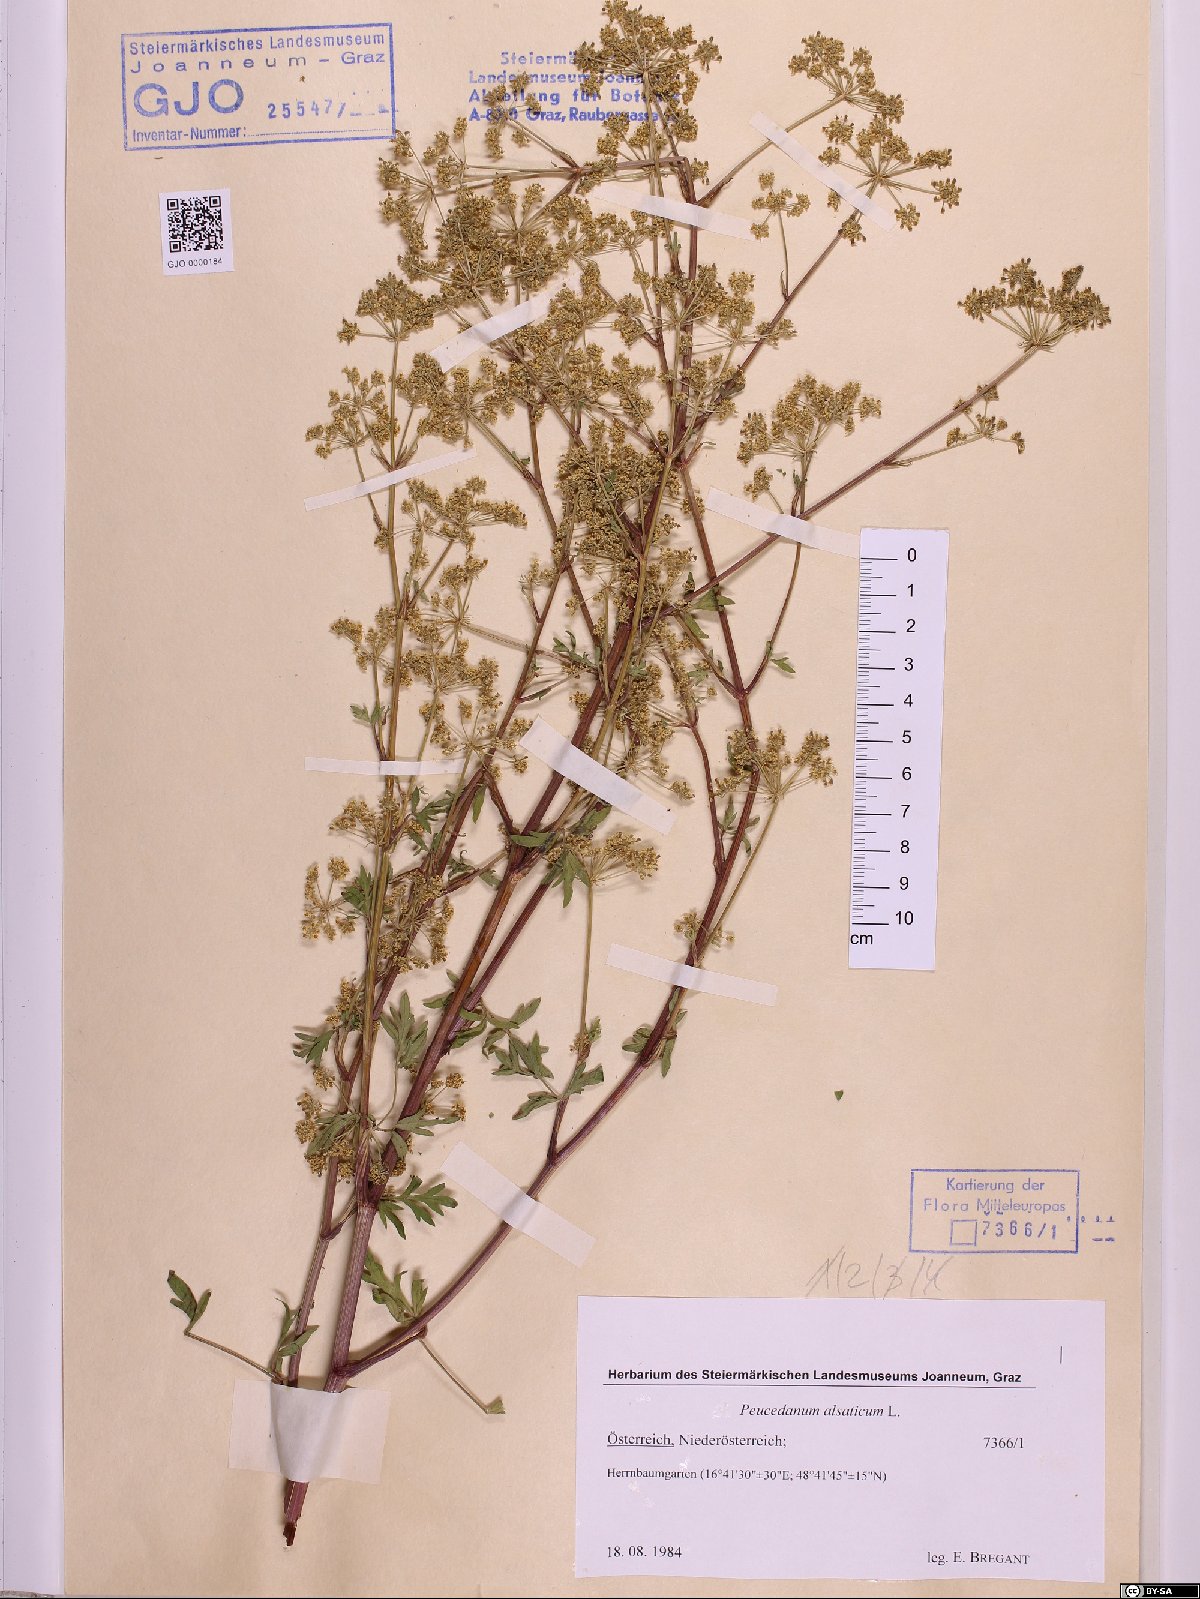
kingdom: Plantae
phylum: Tracheophyta
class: Magnoliopsida
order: Apiales
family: Apiaceae
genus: Xanthoselinum
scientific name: Xanthoselinum alsaticum
